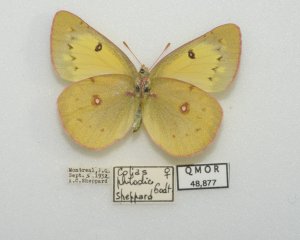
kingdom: Animalia
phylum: Arthropoda
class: Insecta
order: Lepidoptera
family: Pieridae
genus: Colias
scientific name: Colias philodice
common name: Clouded Sulphur
